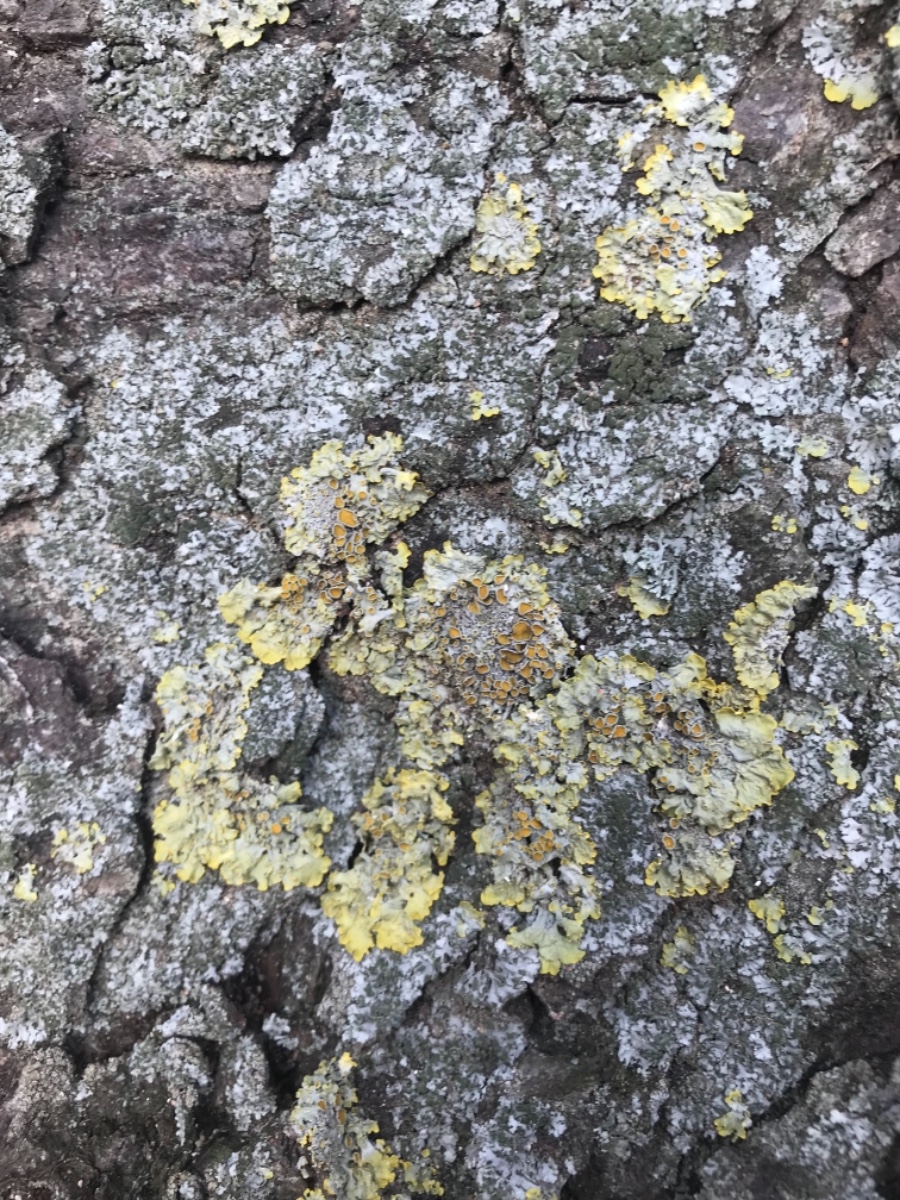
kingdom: Fungi
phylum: Ascomycota
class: Lecanoromycetes
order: Teloschistales
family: Teloschistaceae
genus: Xanthoria
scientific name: Xanthoria parietina
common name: almindelig væggelav
